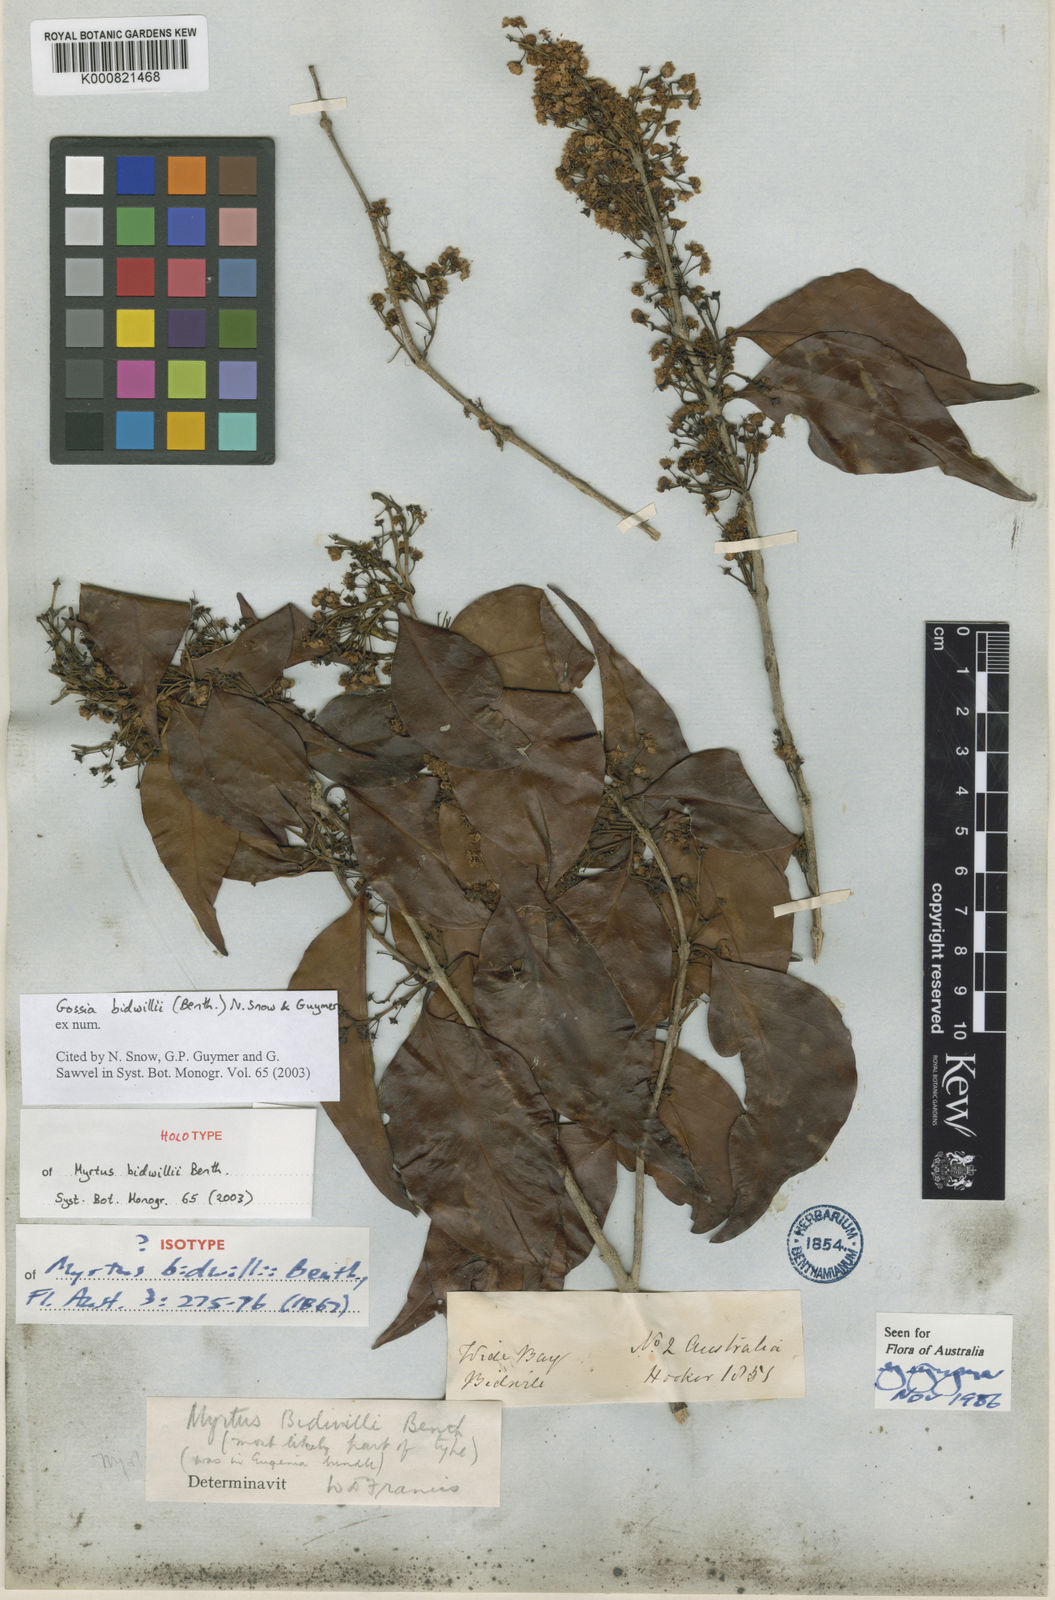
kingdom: Plantae
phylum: Tracheophyta
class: Magnoliopsida
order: Myrtales
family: Myrtaceae
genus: Gossia
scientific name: Gossia bidwillii
